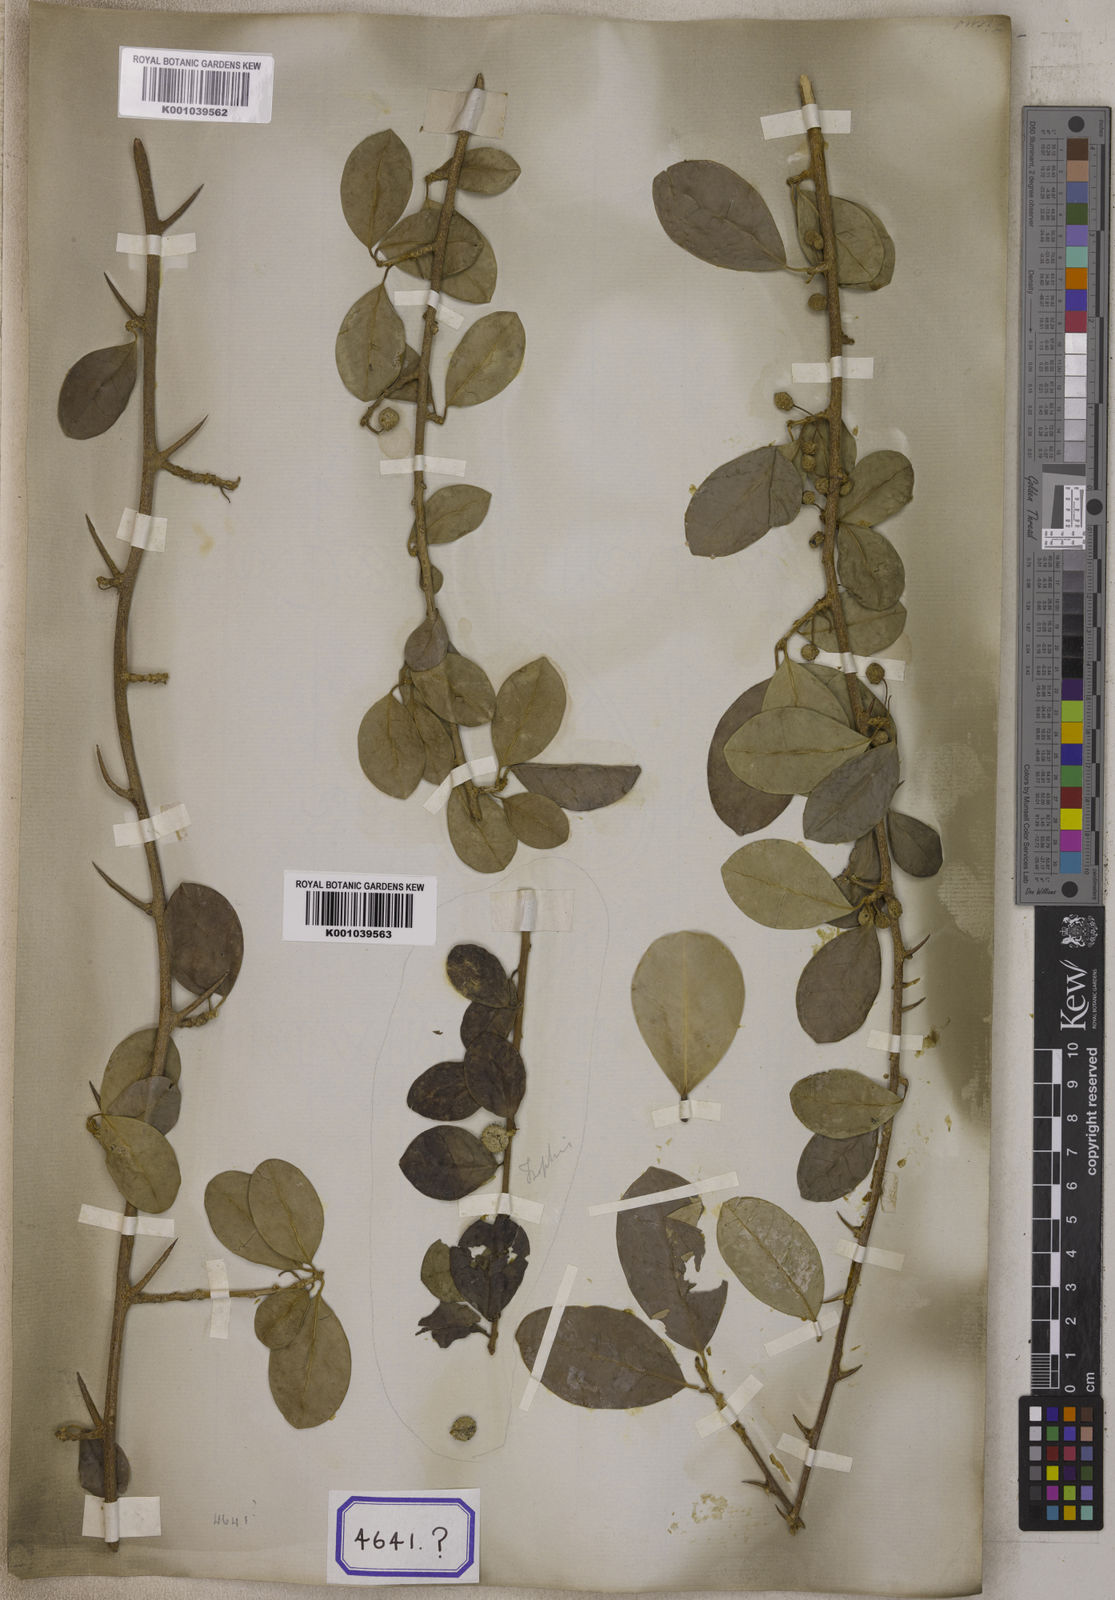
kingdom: Plantae
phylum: Tracheophyta
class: Magnoliopsida
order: Rosales
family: Moraceae
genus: Taxotrophis
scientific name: Taxotrophis taxoides
